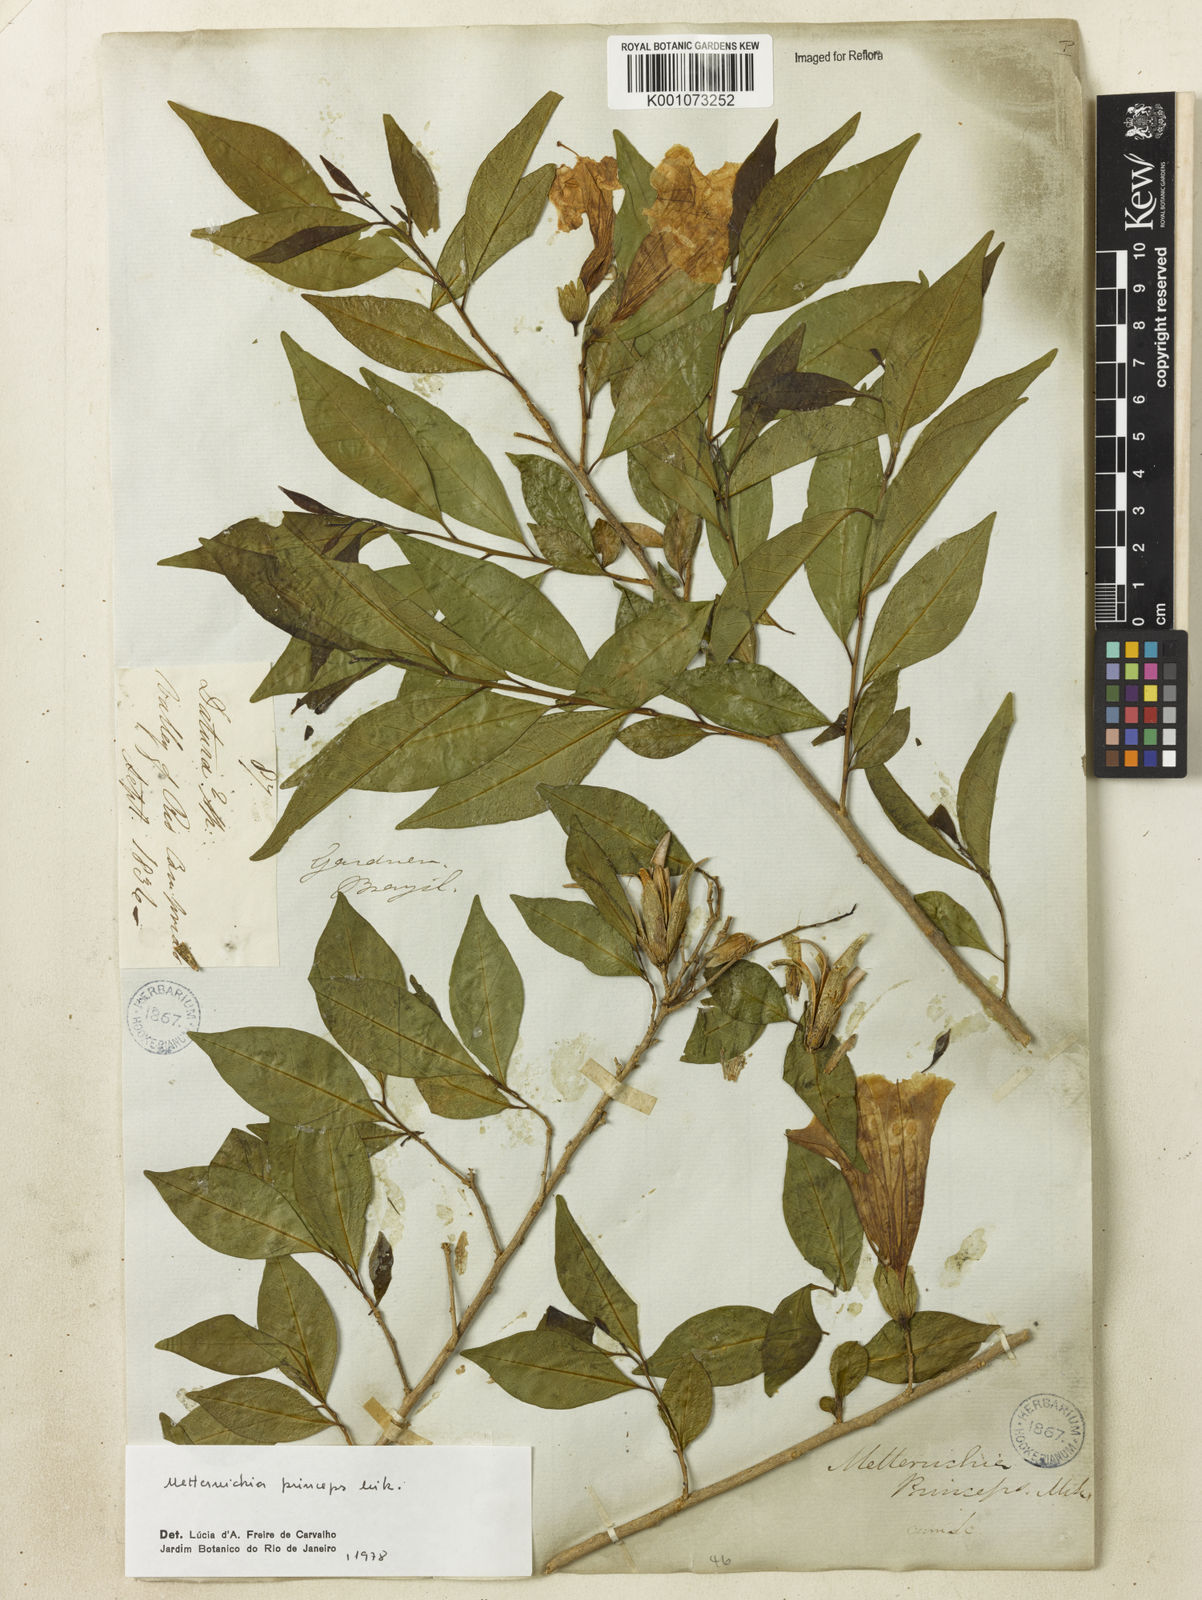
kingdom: Plantae
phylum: Tracheophyta
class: Magnoliopsida
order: Solanales
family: Solanaceae
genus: Metternichia
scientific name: Metternichia
